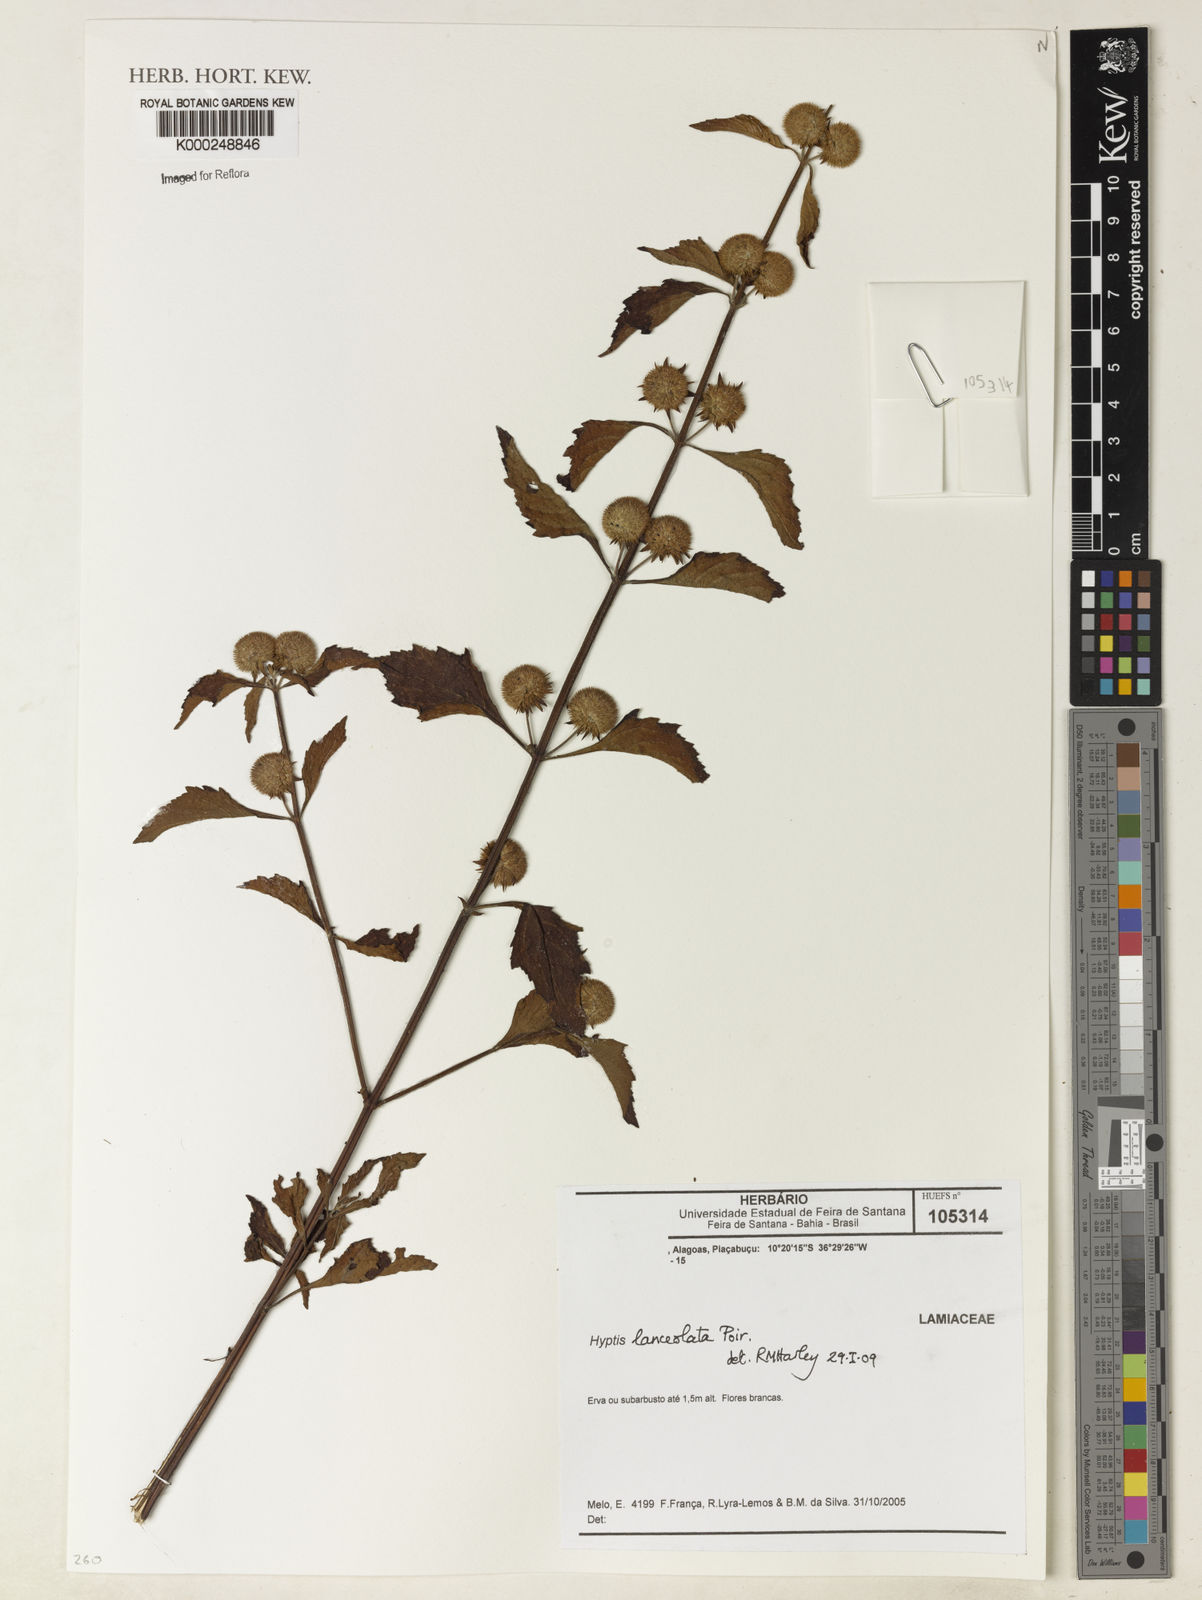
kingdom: Plantae
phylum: Tracheophyta
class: Magnoliopsida
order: Lamiales
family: Lamiaceae
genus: Hyptis
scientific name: Hyptis lanceolata
